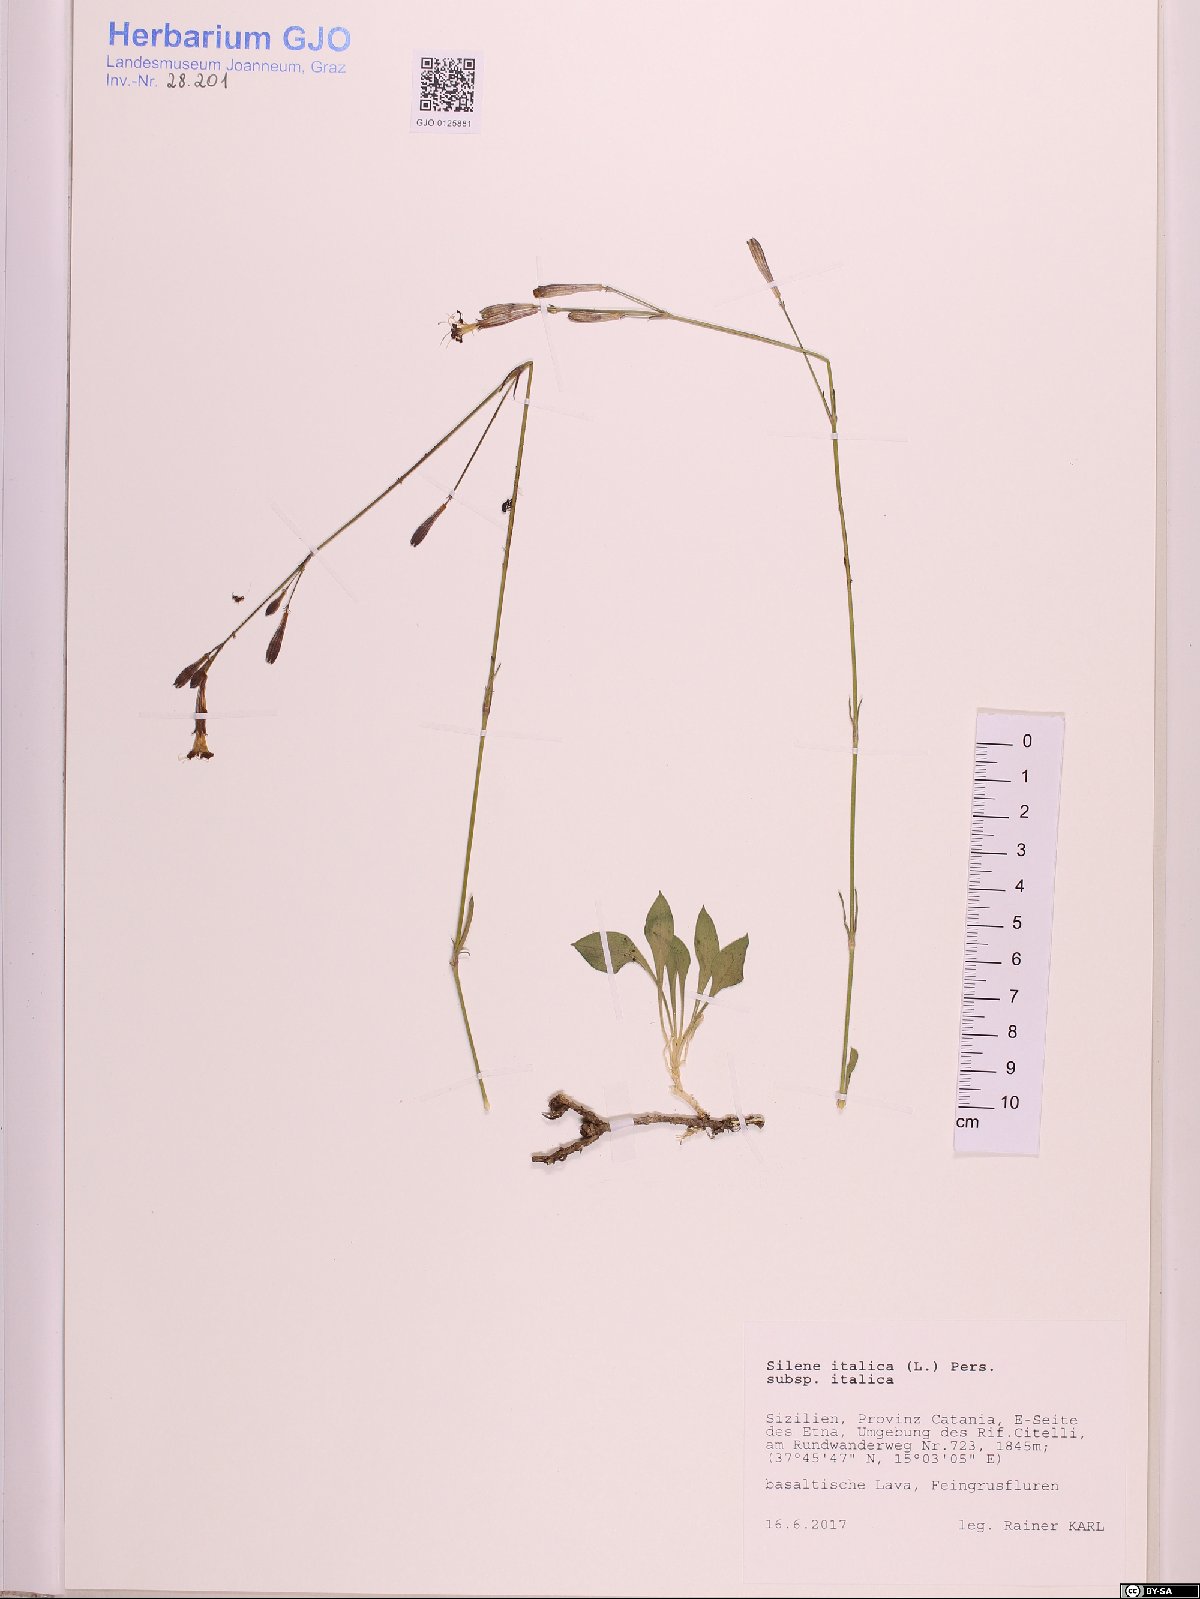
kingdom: Plantae
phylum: Tracheophyta
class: Magnoliopsida
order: Caryophyllales
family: Caryophyllaceae
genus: Silene
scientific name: Silene italica
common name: Italian catchfly
